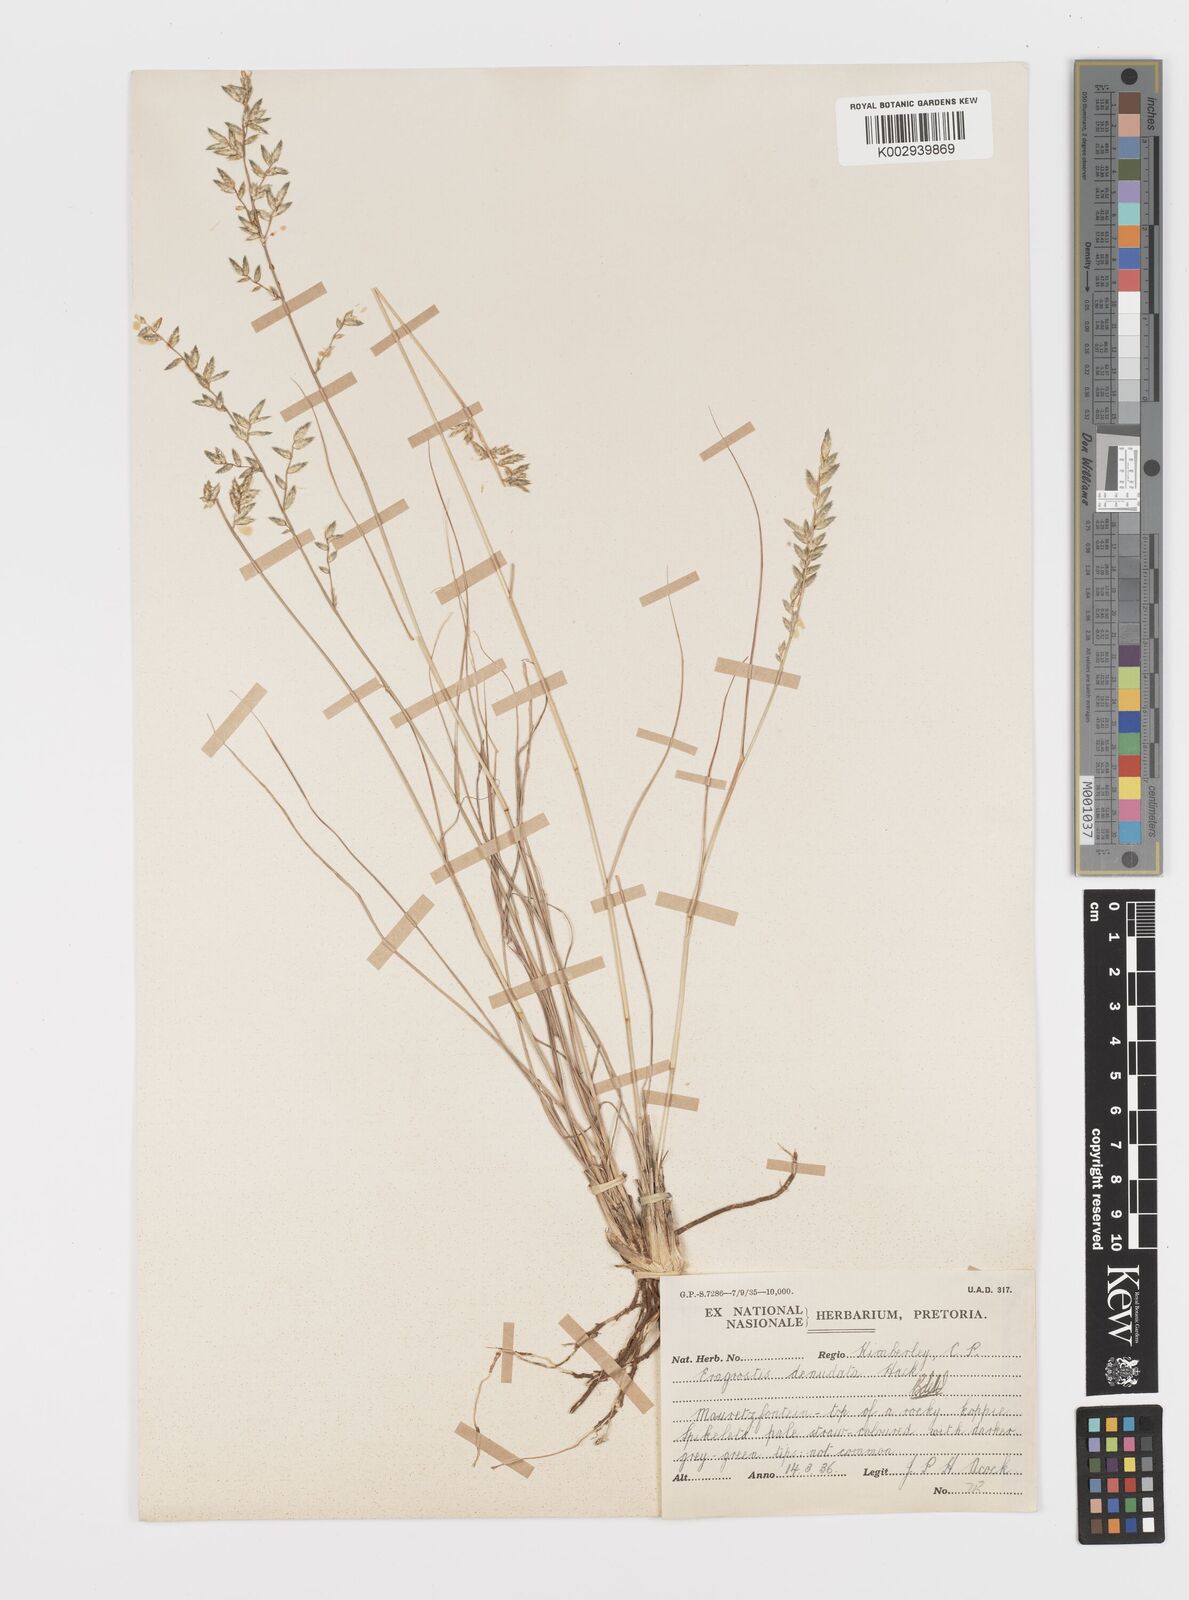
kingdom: Plantae
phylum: Tracheophyta
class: Liliopsida
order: Poales
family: Poaceae
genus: Eragrostis
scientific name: Eragrostis nindensis
